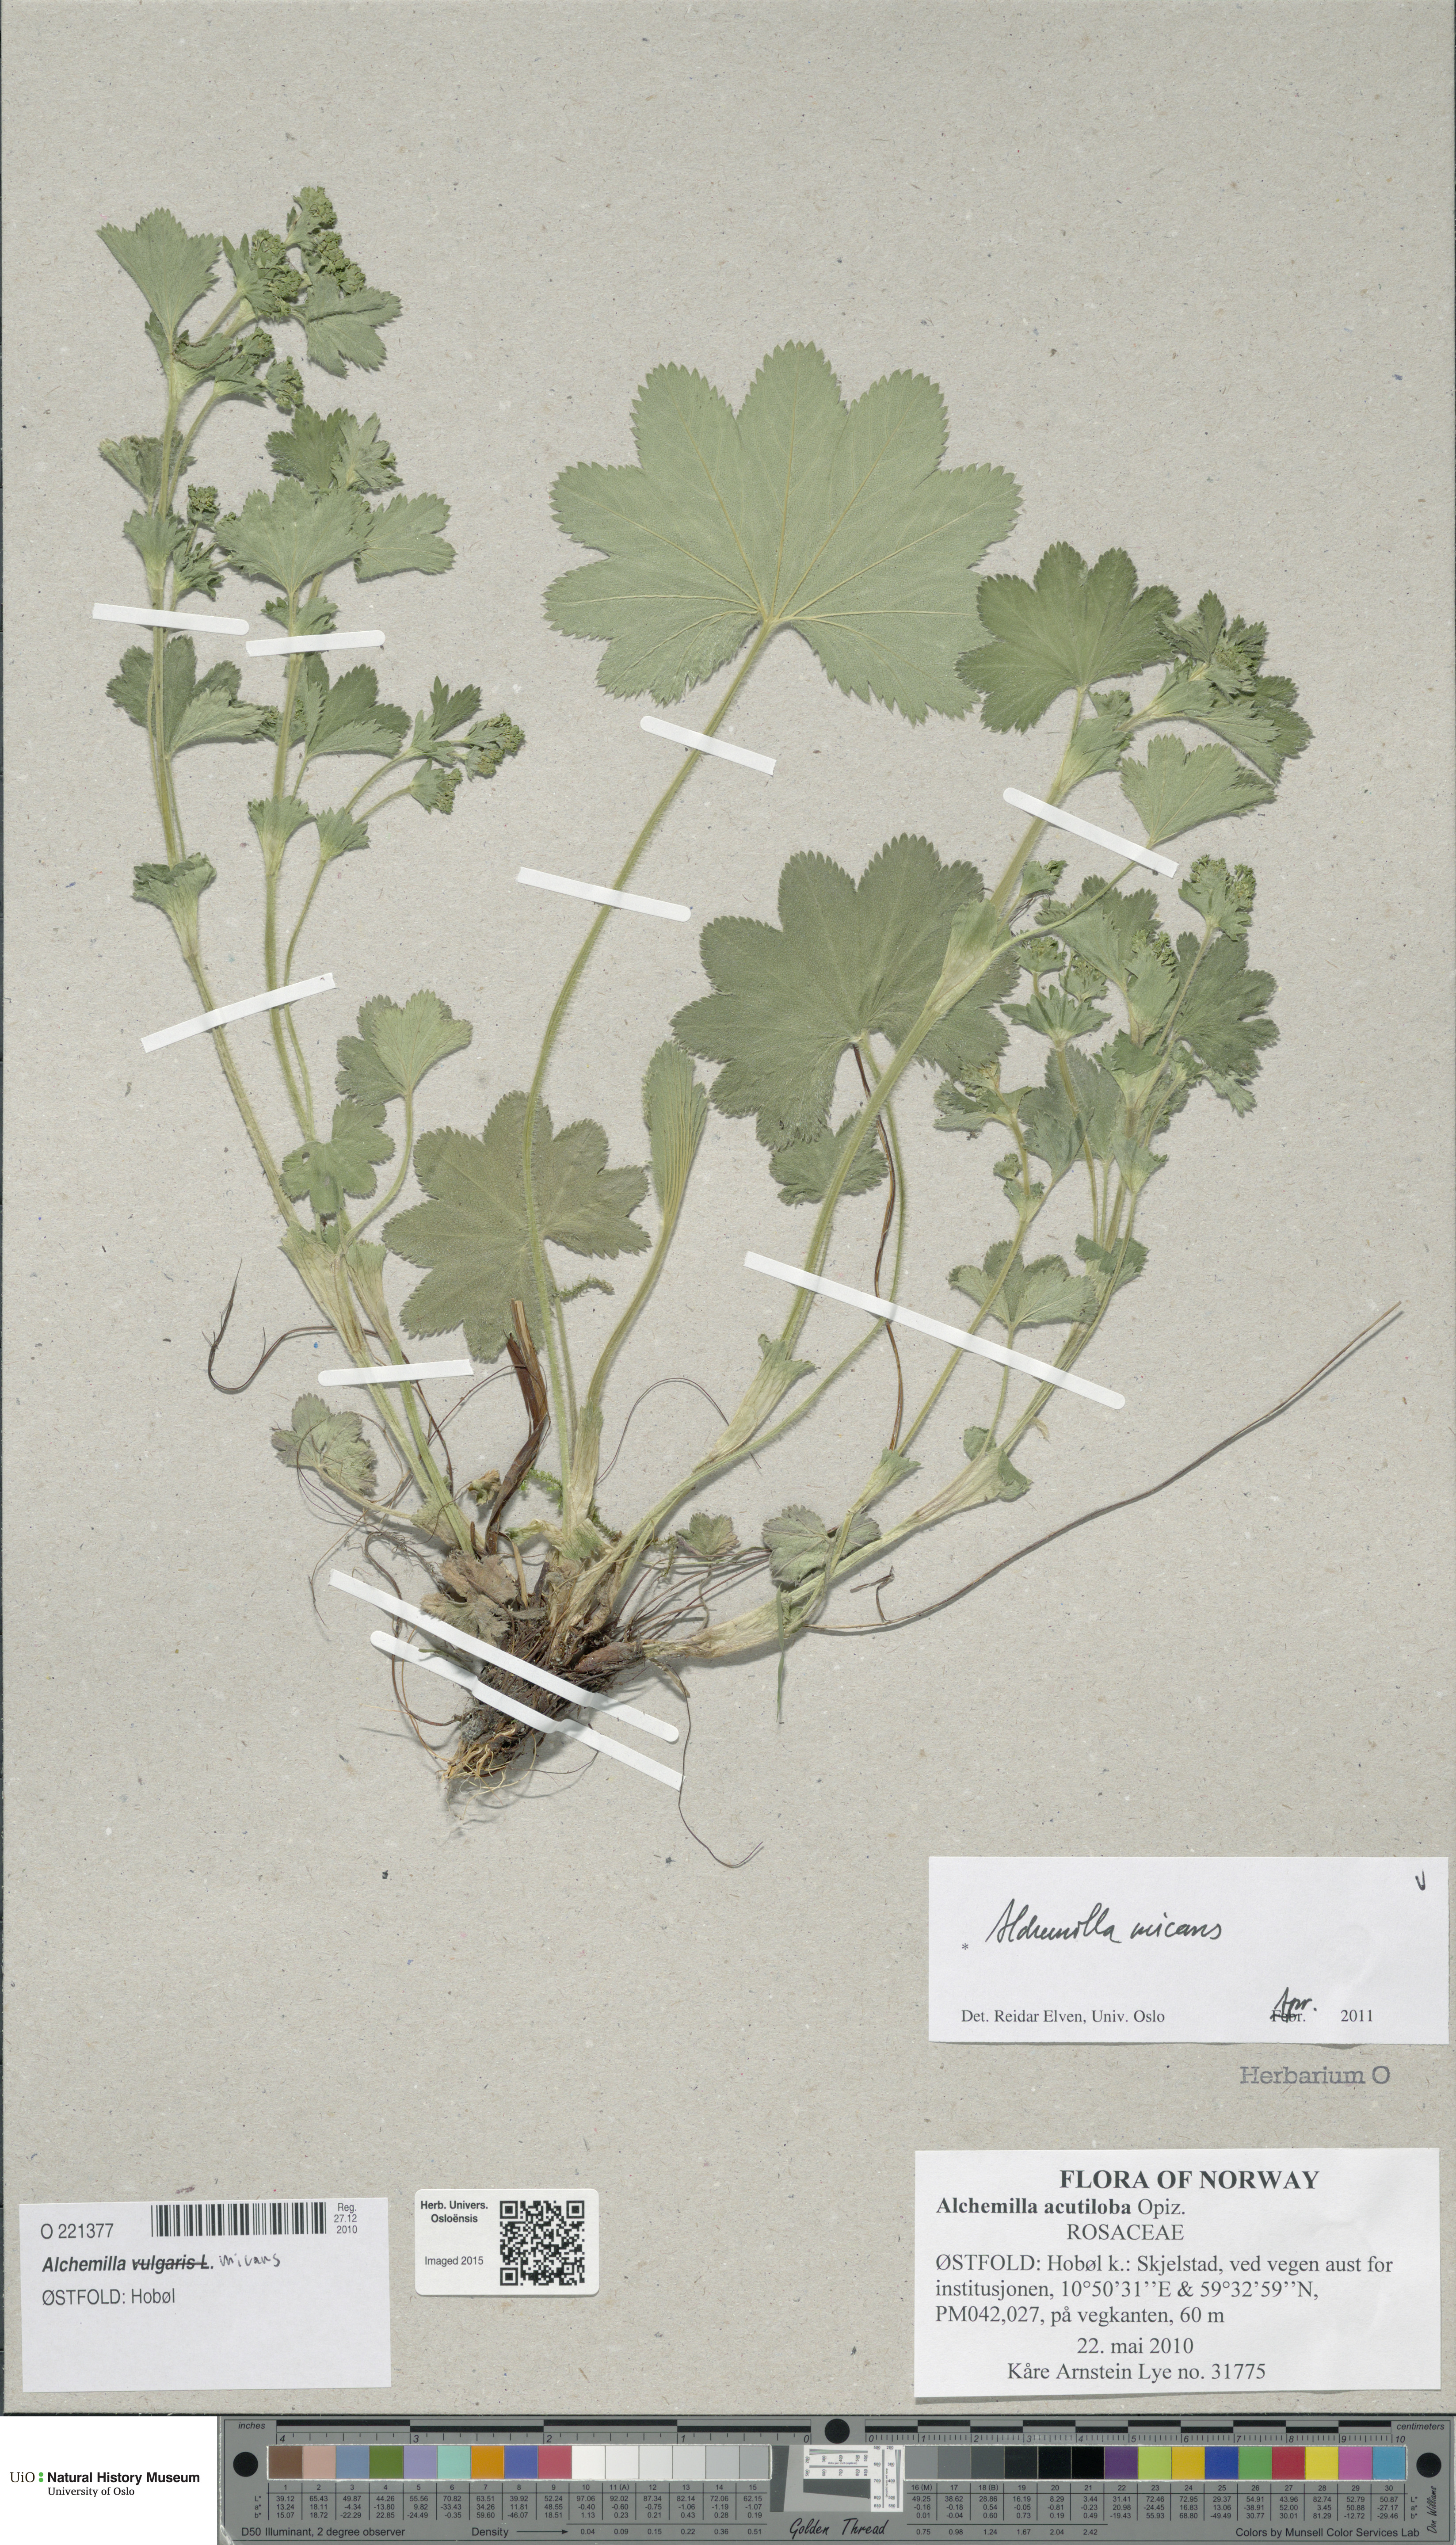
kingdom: Plantae
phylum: Tracheophyta
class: Magnoliopsida
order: Rosales
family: Rosaceae
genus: Alchemilla
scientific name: Alchemilla micans
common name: Gleaming lady's mantle
